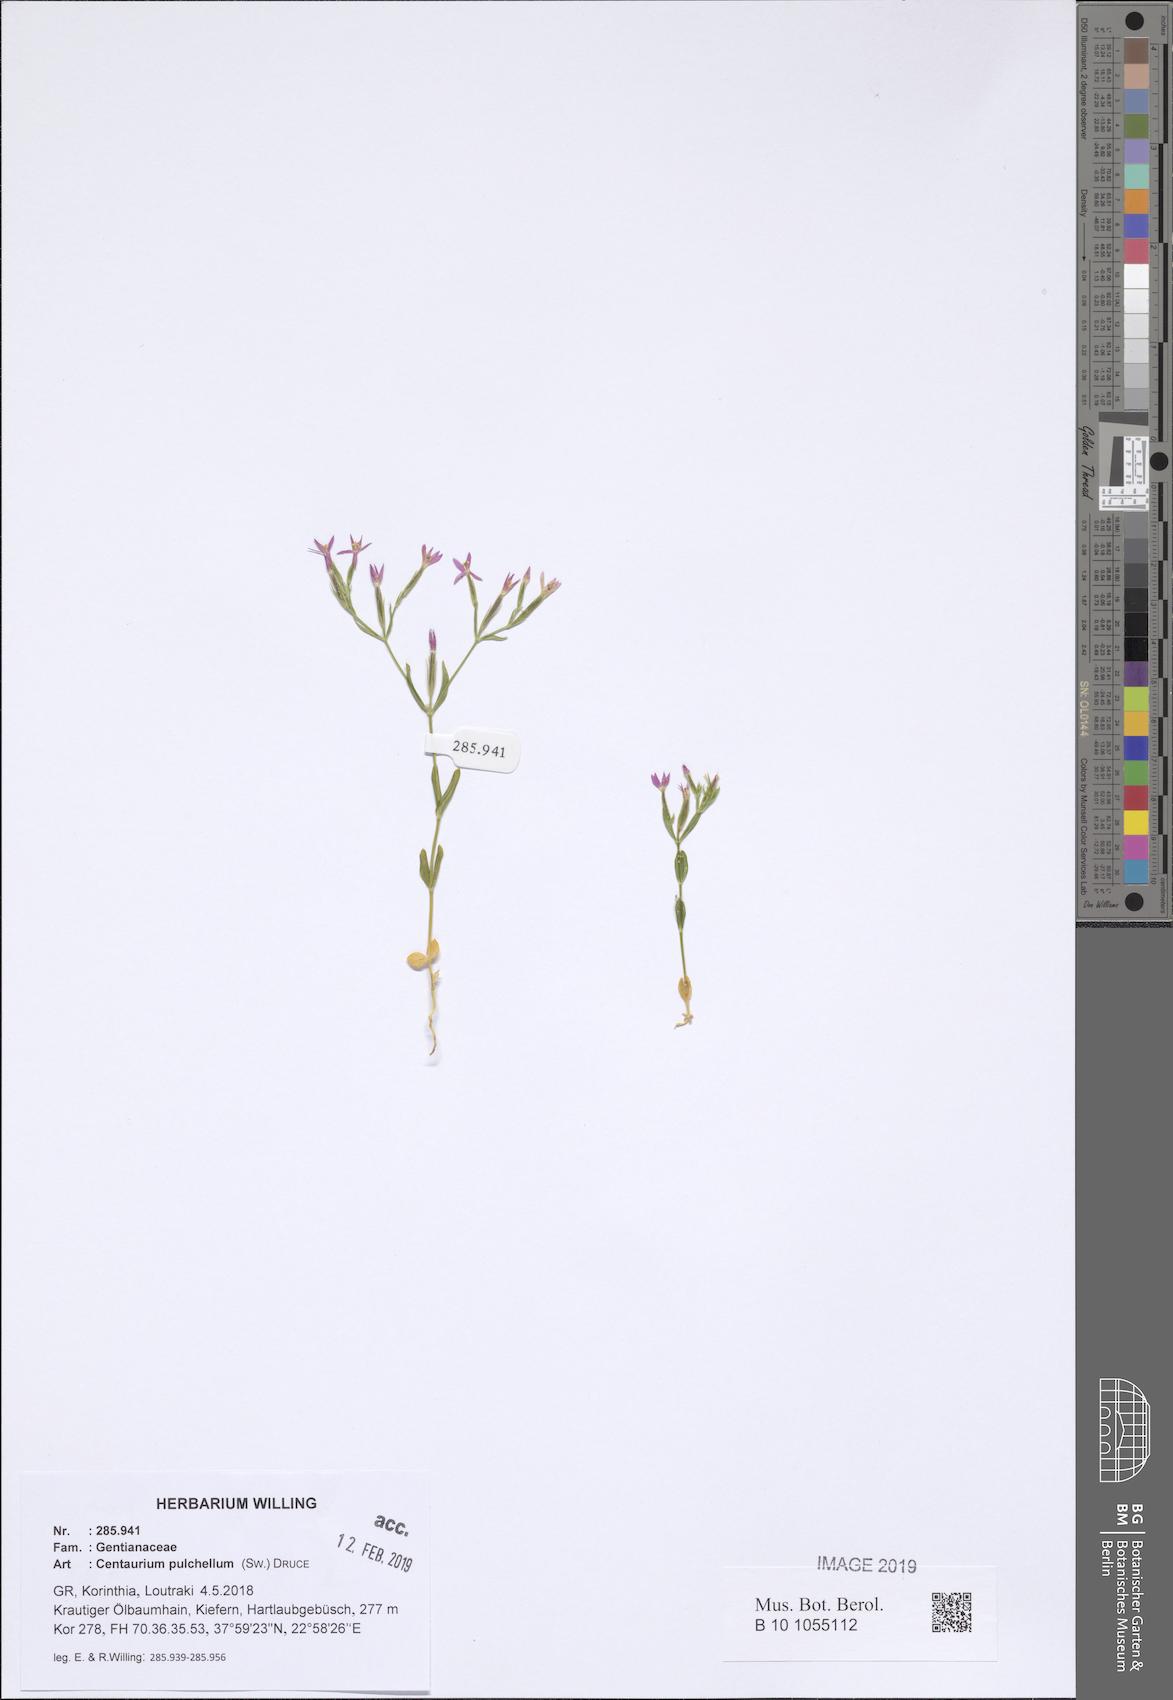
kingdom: Plantae
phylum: Tracheophyta
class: Magnoliopsida
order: Gentianales
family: Gentianaceae
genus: Centaurium
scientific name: Centaurium pulchellum
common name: Lesser centaury
